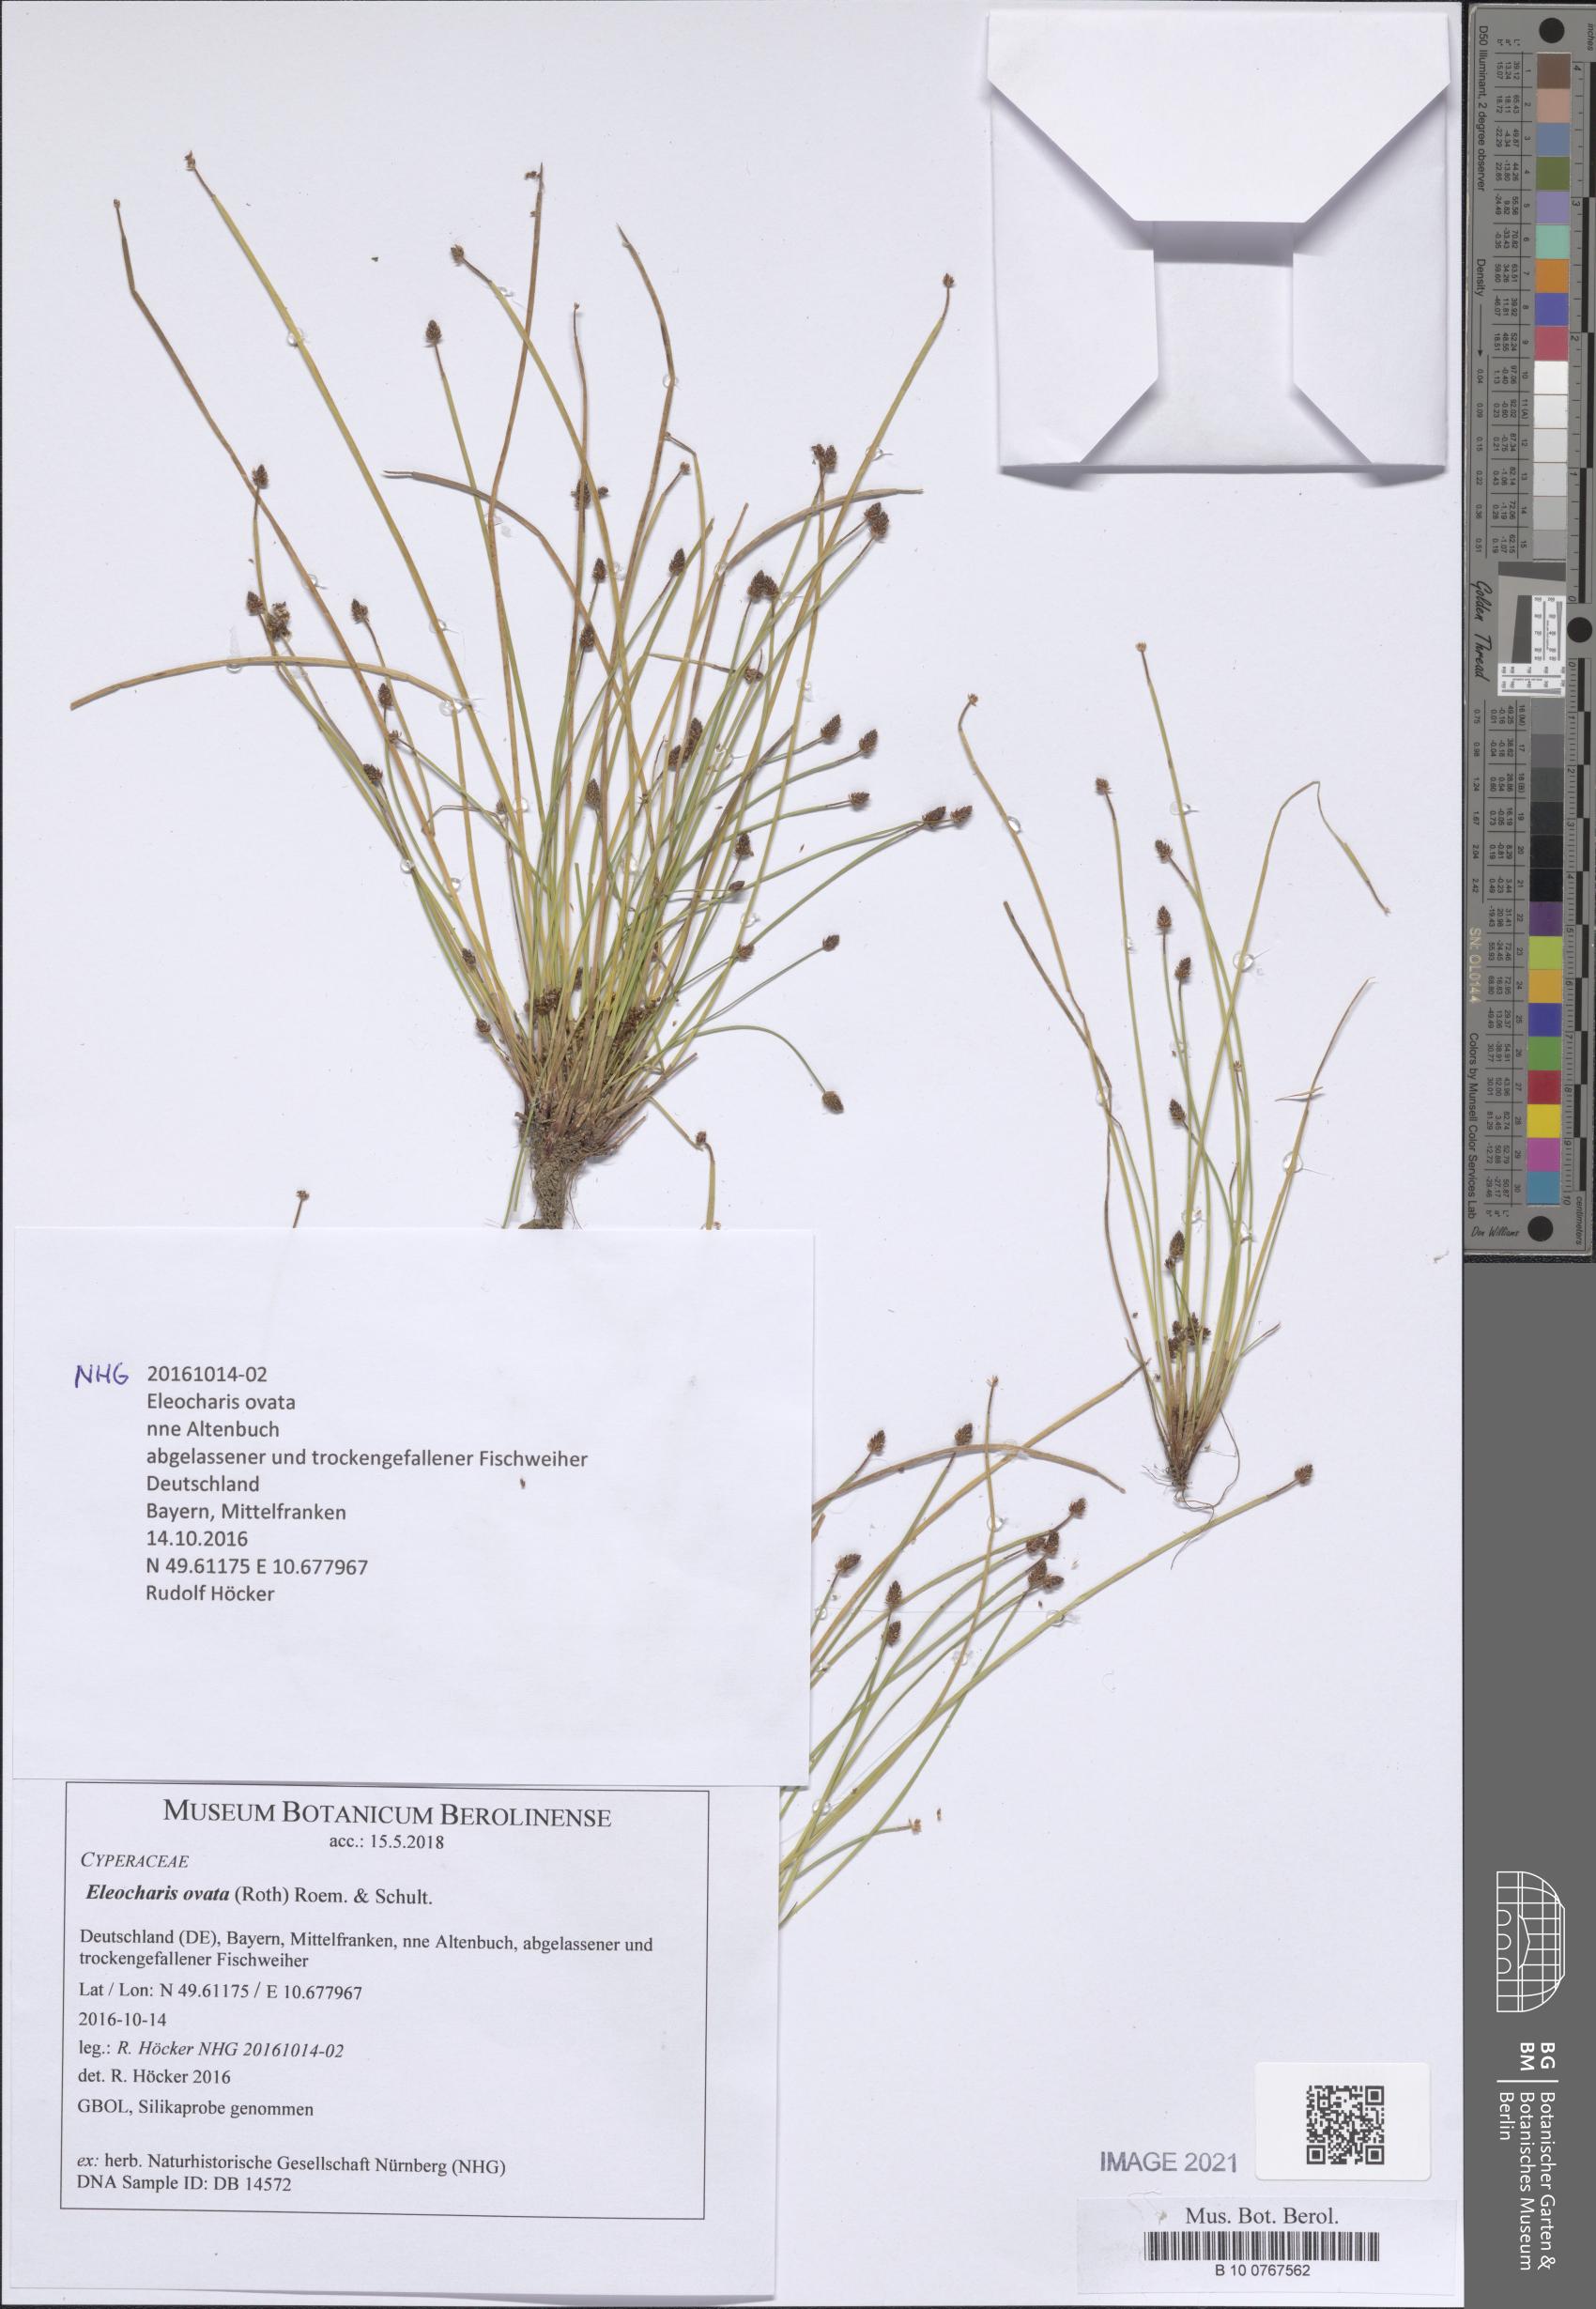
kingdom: Plantae
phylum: Tracheophyta
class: Liliopsida
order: Poales
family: Cyperaceae
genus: Eleocharis
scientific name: Eleocharis ovata
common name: Oval spike-rush
